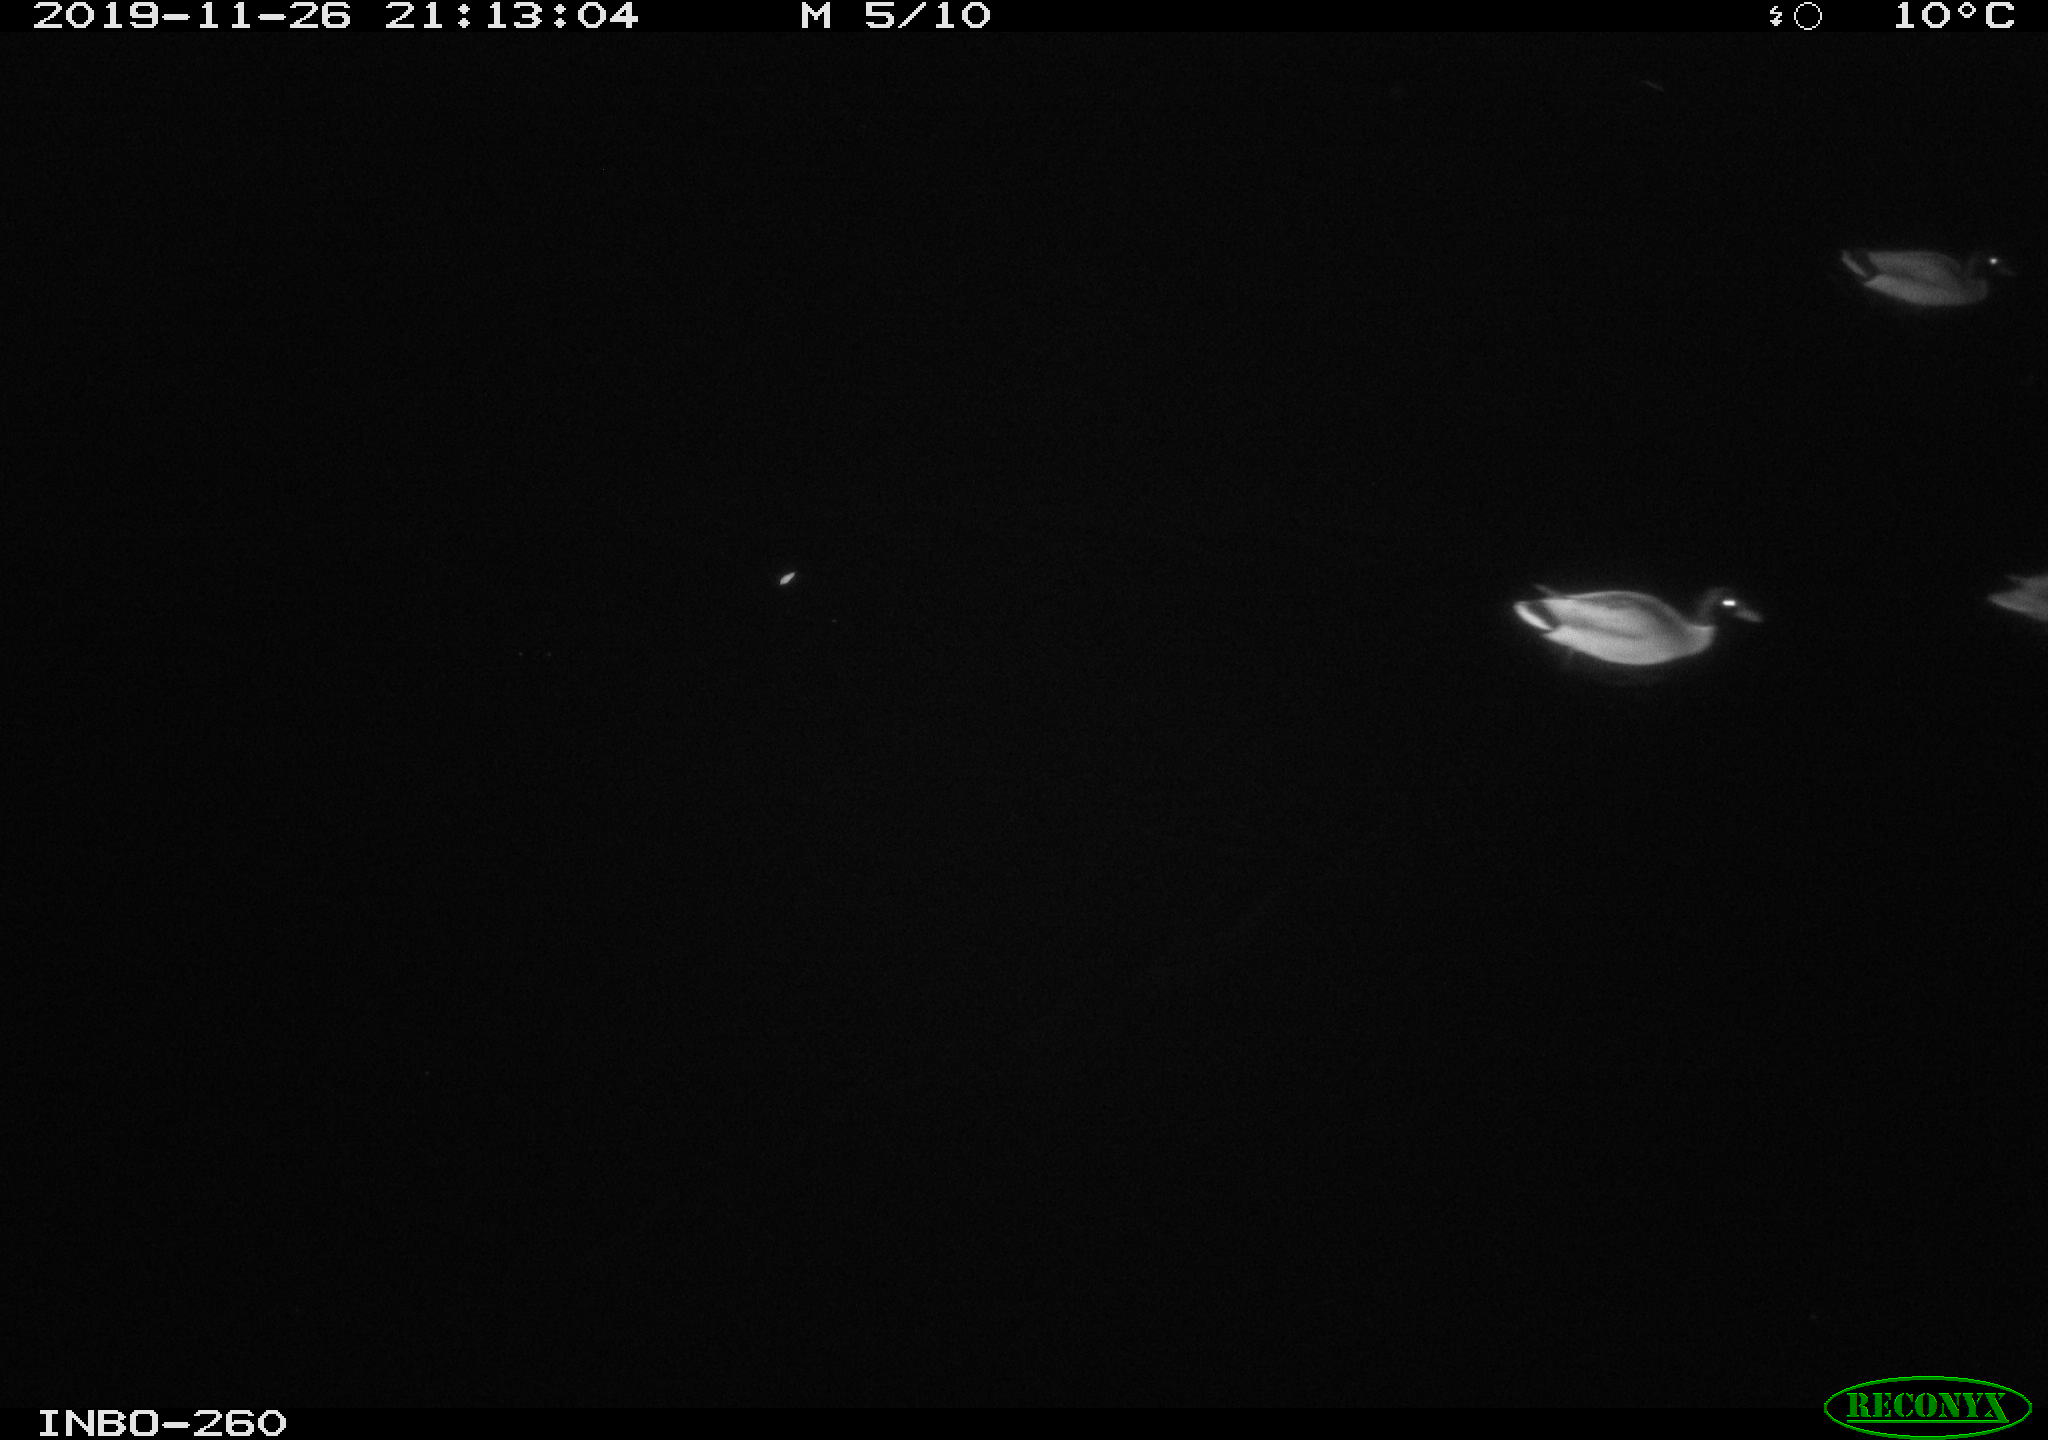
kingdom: Animalia
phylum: Chordata
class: Aves
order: Anseriformes
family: Anatidae
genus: Anas
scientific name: Anas platyrhynchos
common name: Mallard
